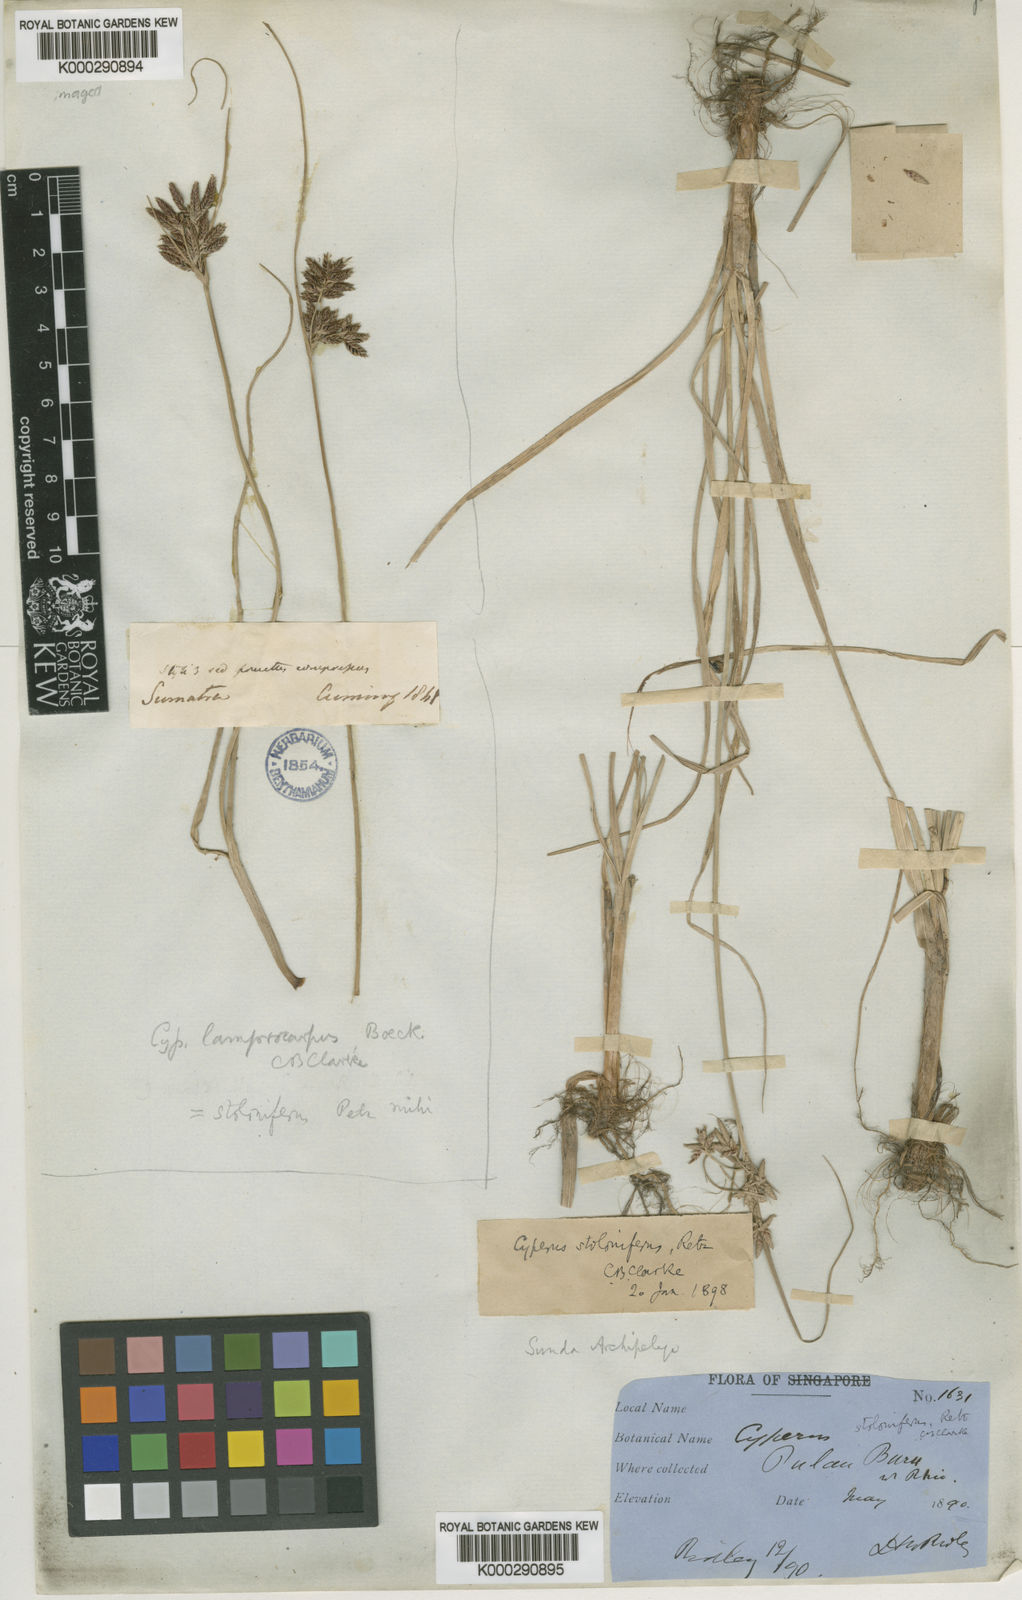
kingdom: Plantae
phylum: Tracheophyta
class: Liliopsida
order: Poales
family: Cyperaceae
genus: Cyperus
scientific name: Cyperus
